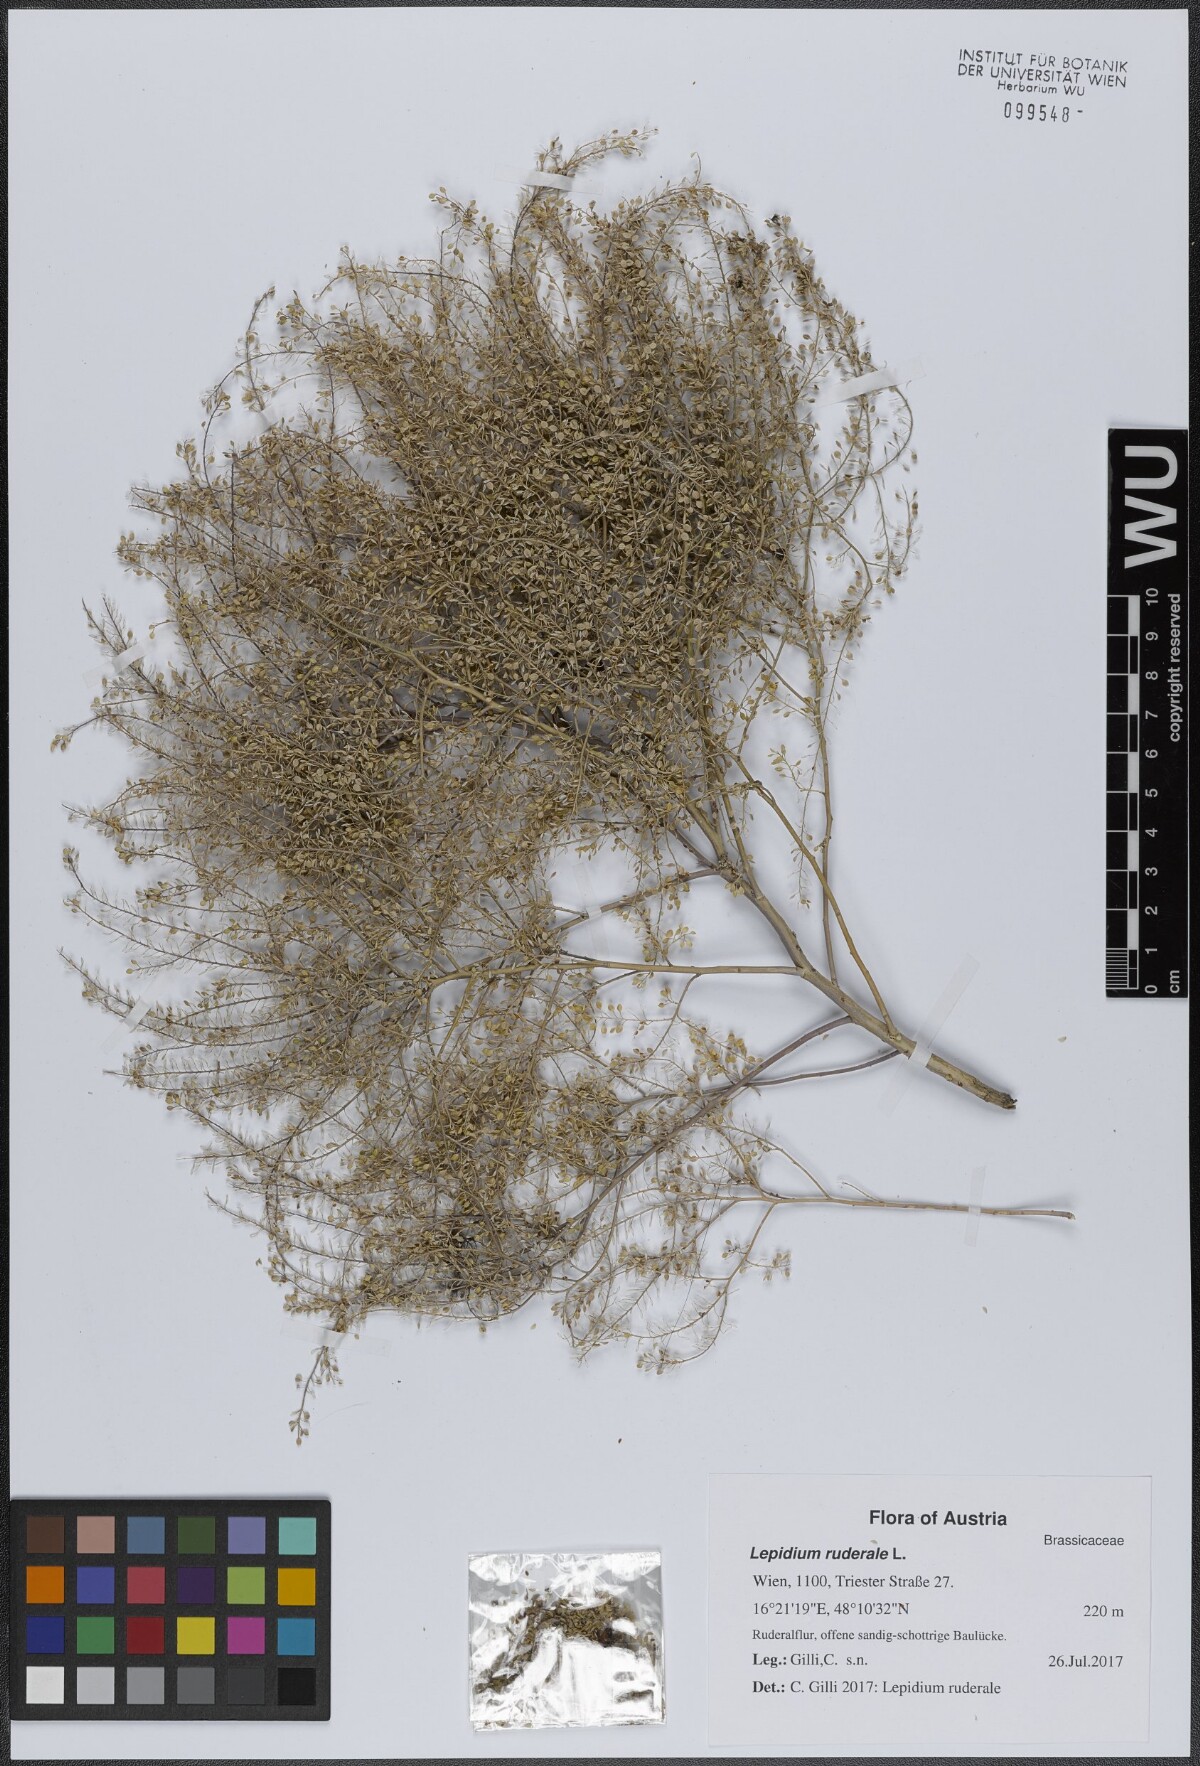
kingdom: Plantae
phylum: Tracheophyta
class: Magnoliopsida
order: Brassicales
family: Brassicaceae
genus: Lepidium
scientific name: Lepidium ruderale
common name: Narrow-leaved pepperwort
